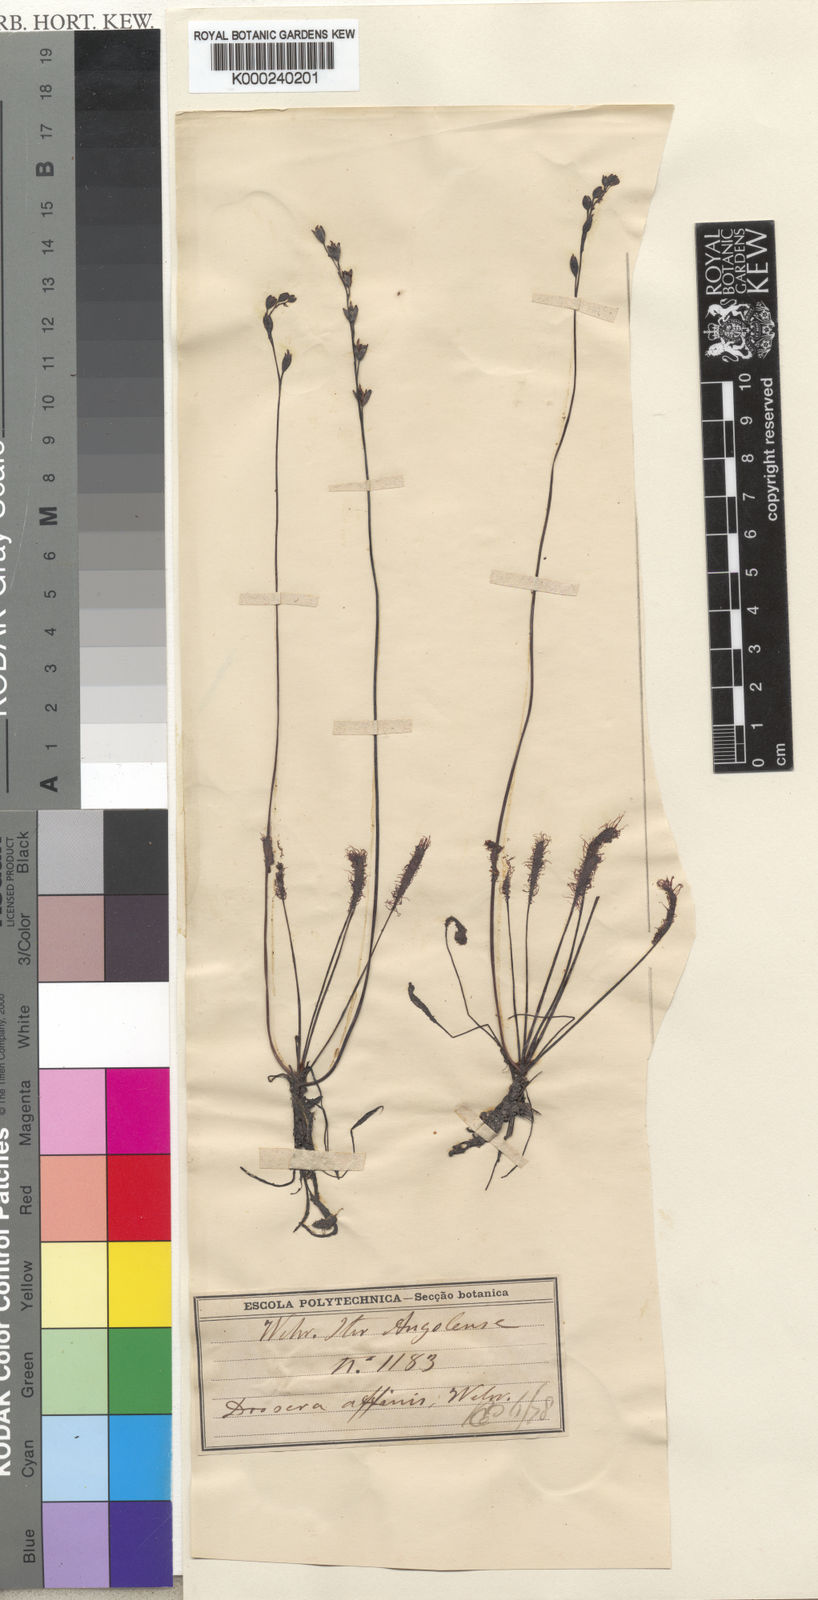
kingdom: Plantae
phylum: Tracheophyta
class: Magnoliopsida
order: Caryophyllales
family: Droseraceae
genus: Drosera
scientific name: Drosera affinis
